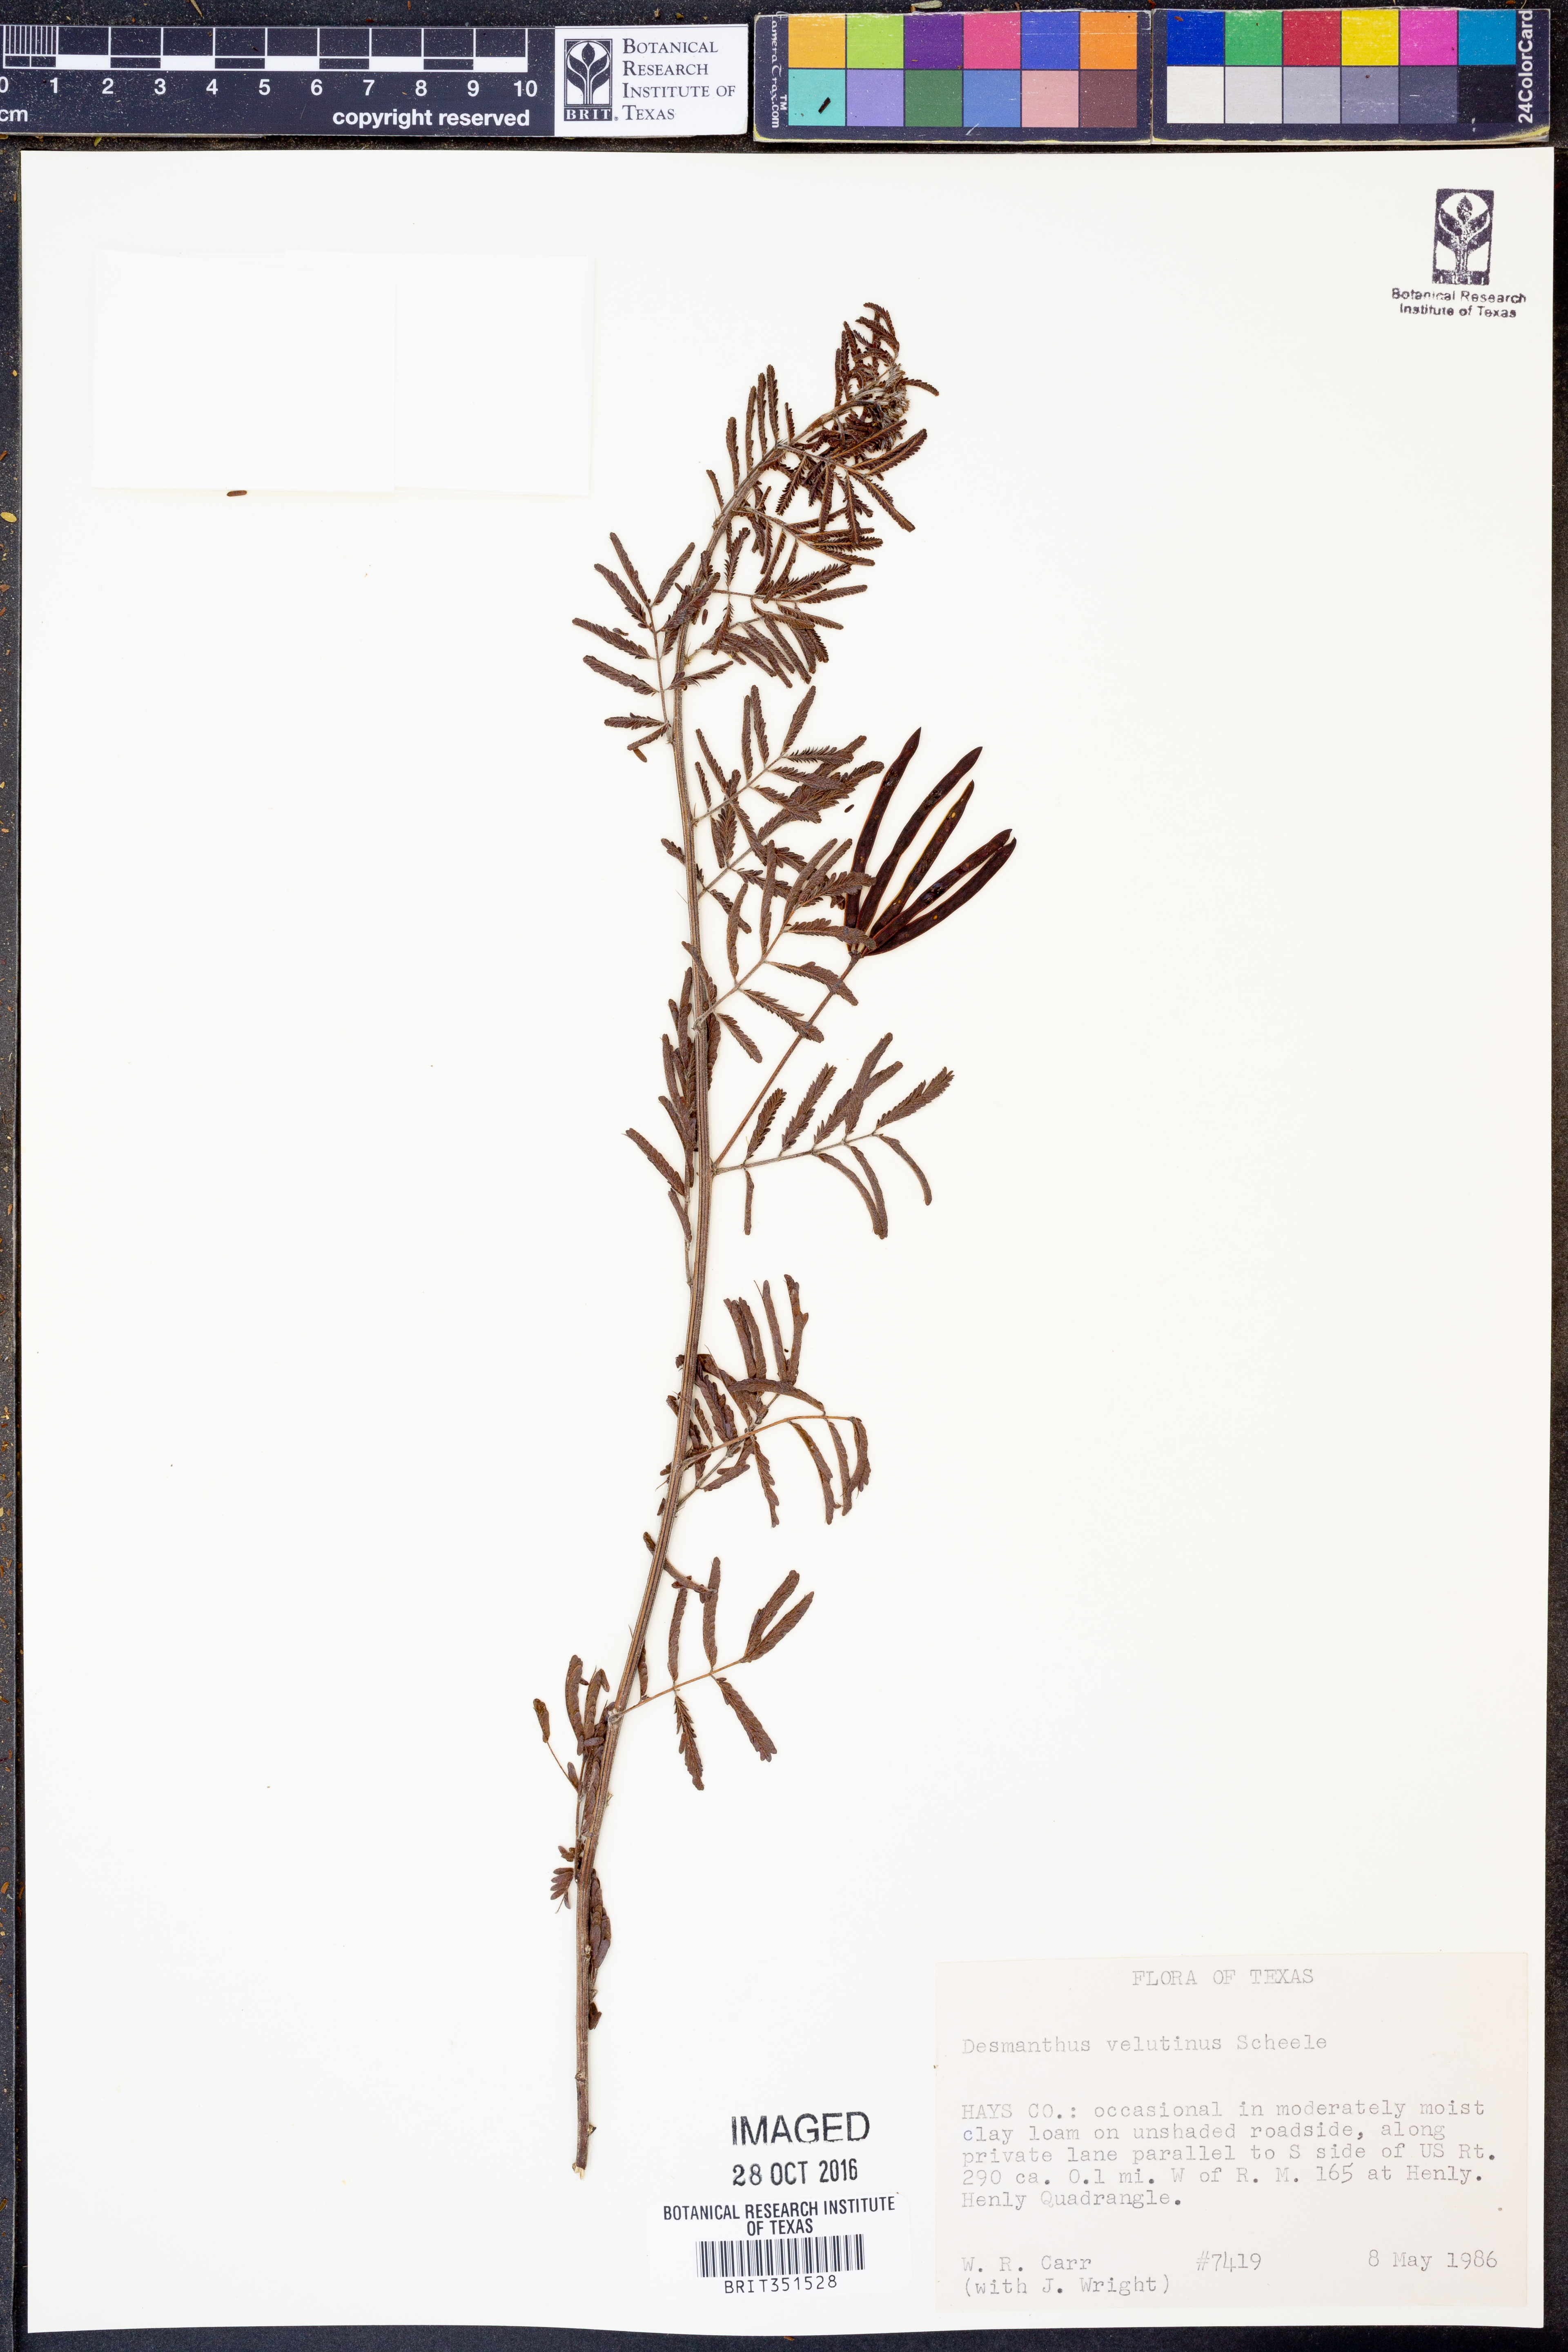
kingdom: Plantae
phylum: Tracheophyta
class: Magnoliopsida
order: Fabales
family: Fabaceae
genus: Desmanthus
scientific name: Desmanthus velutinus
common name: Velvet bundle-flower
